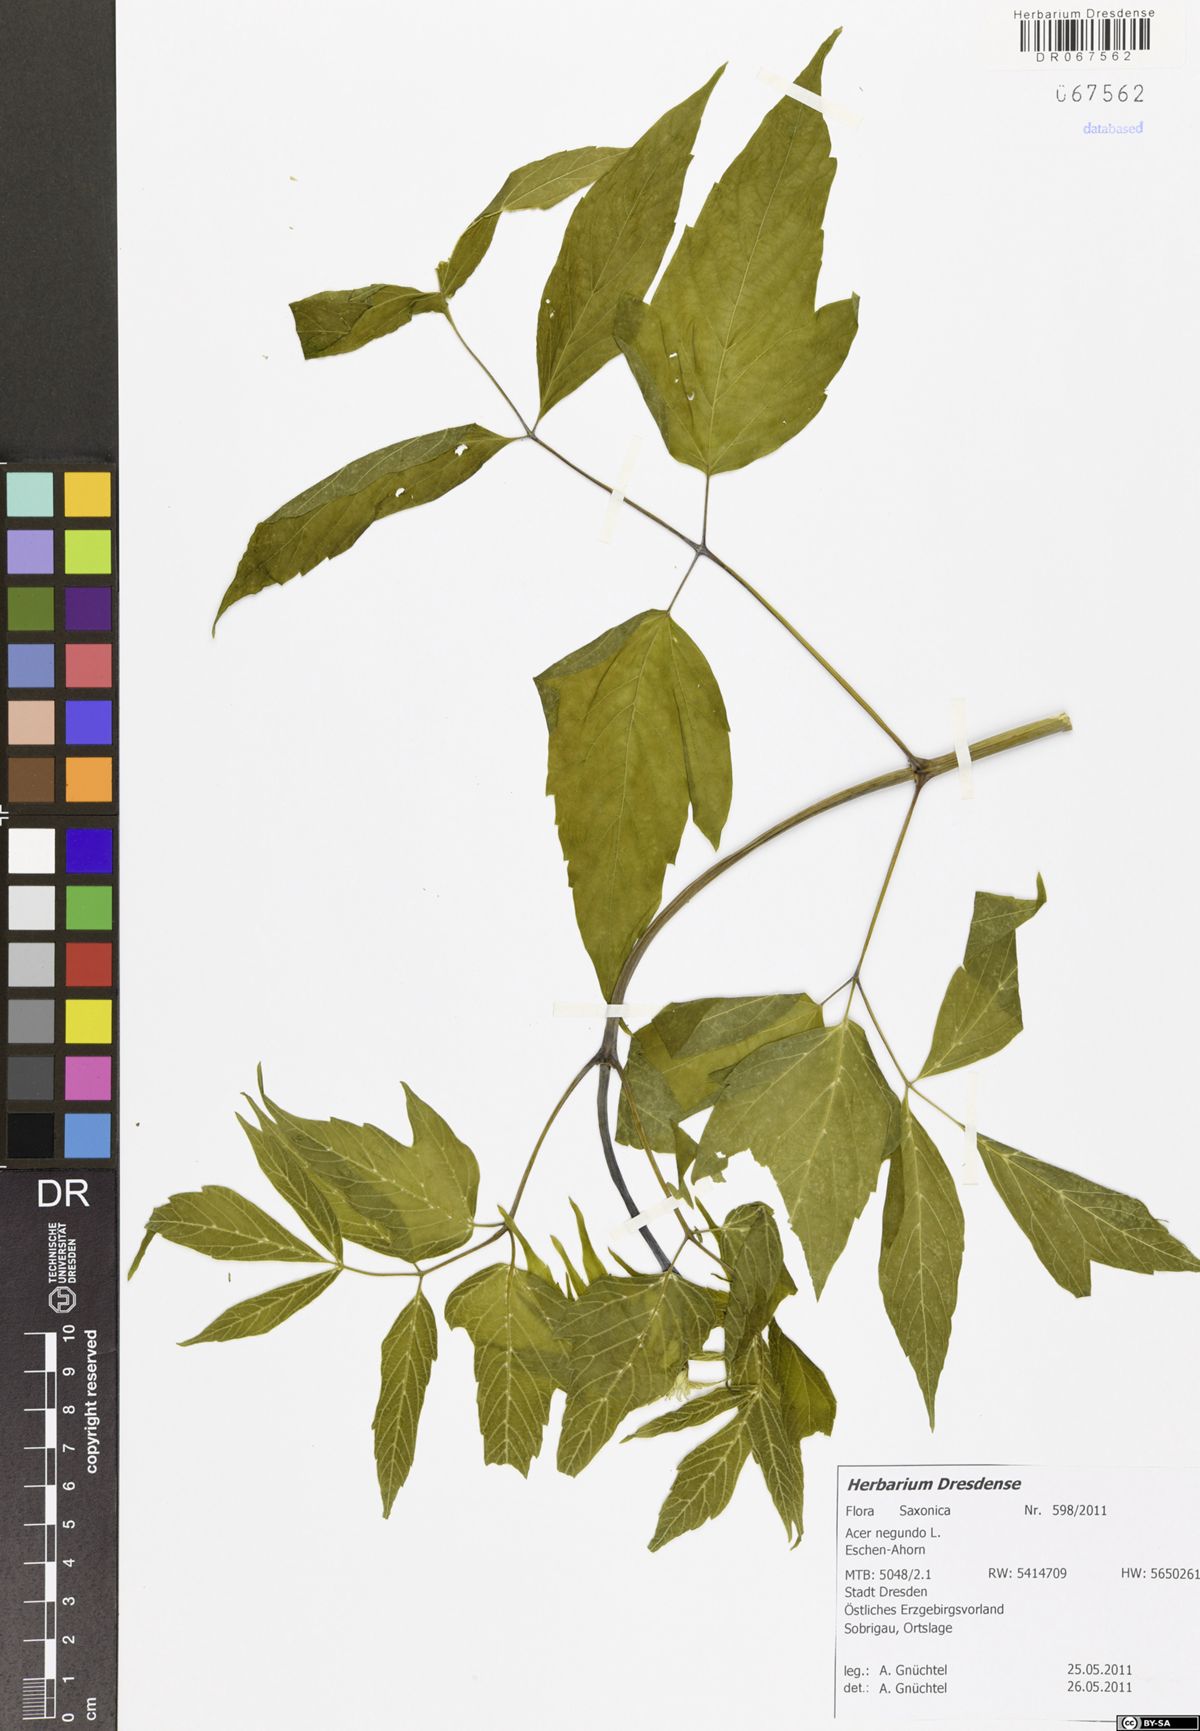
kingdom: Plantae
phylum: Tracheophyta
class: Magnoliopsida
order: Sapindales
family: Sapindaceae
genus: Acer
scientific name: Acer negundo
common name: Ashleaf maple
